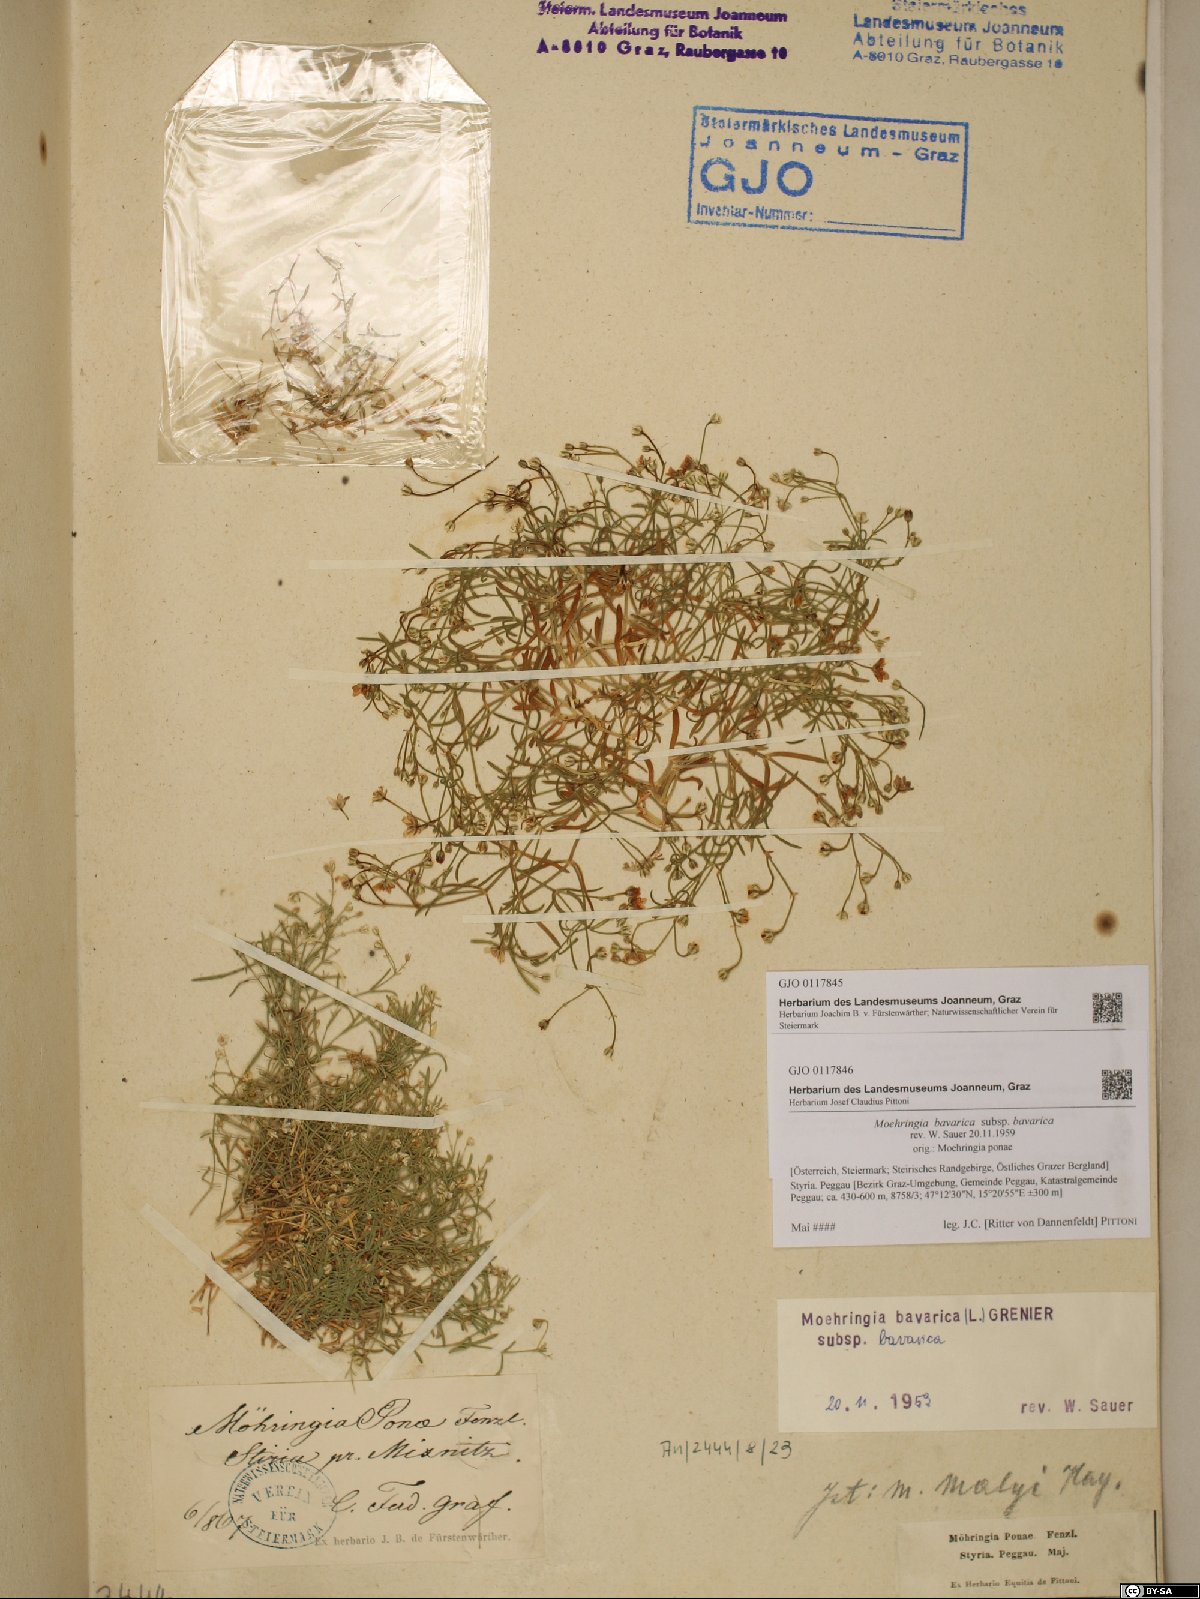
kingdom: Plantae
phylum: Tracheophyta
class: Magnoliopsida
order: Caryophyllales
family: Caryophyllaceae
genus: Moehringia
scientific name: Moehringia bavarica
